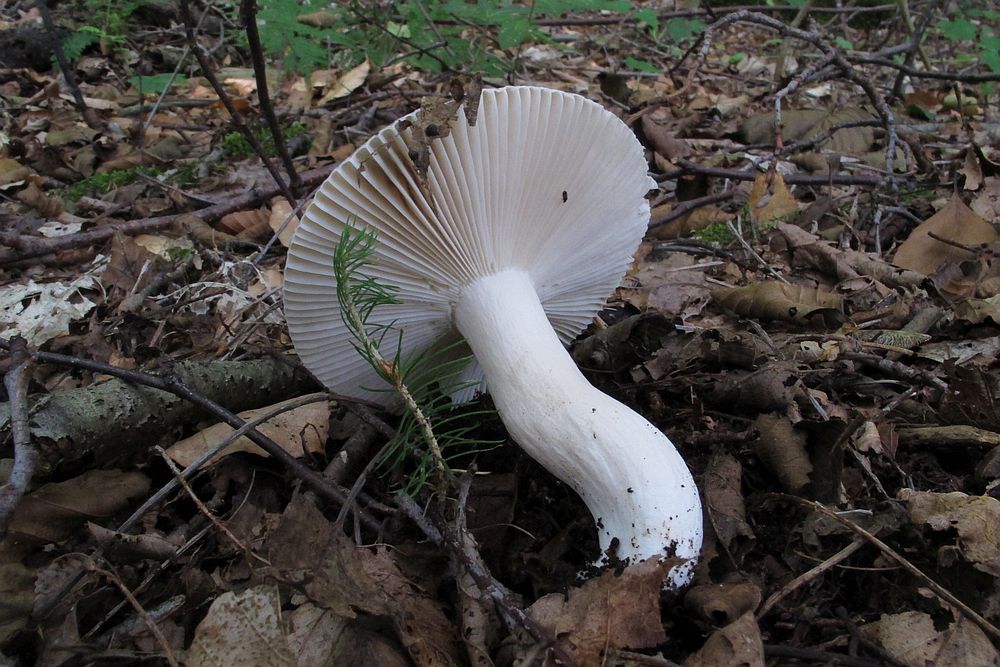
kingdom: Fungi
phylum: Basidiomycota
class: Agaricomycetes
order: Russulales
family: Russulaceae
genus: Russula
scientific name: Russula
